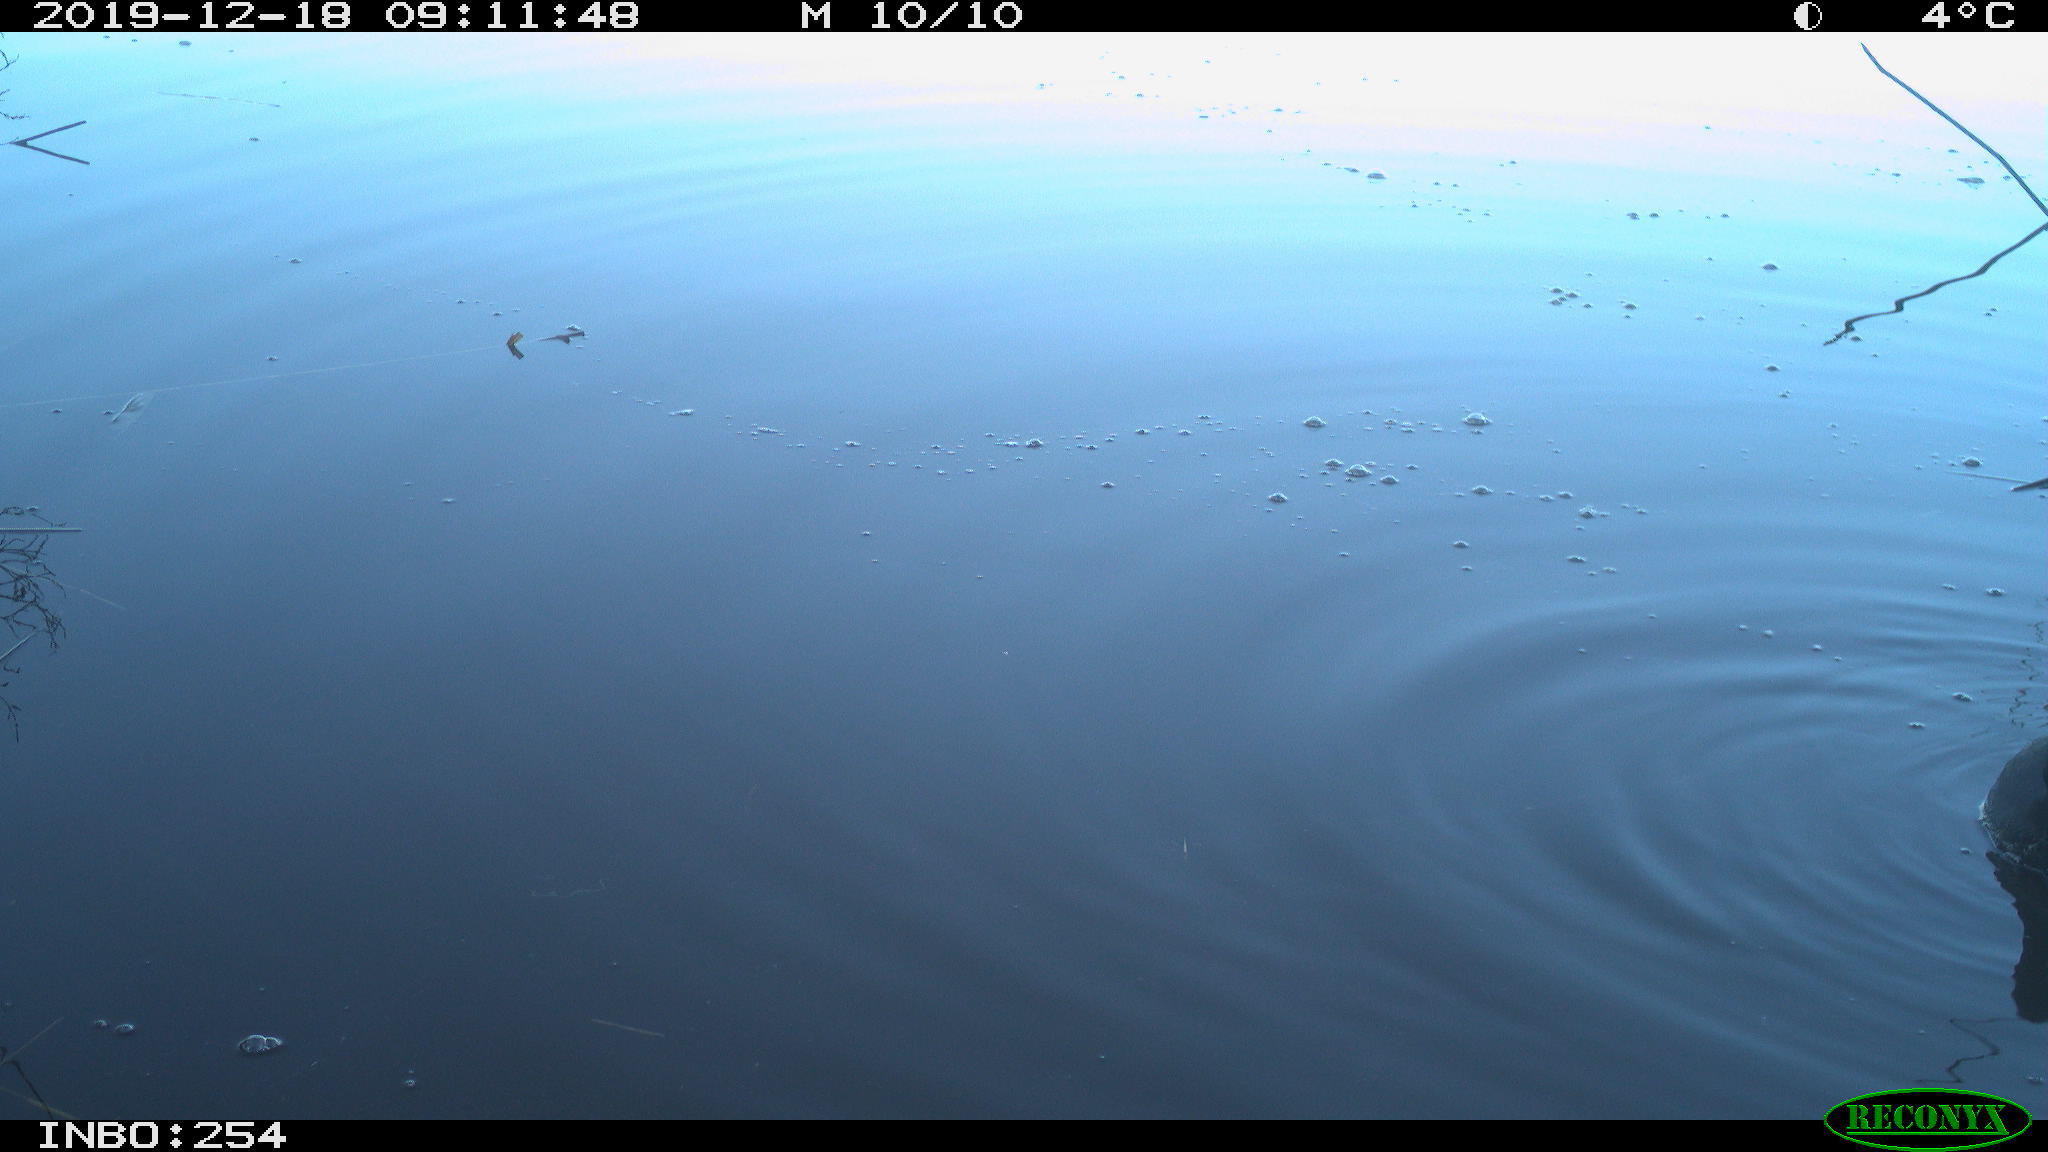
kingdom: Animalia
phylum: Chordata
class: Aves
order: Gruiformes
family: Rallidae
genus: Fulica
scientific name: Fulica atra
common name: Eurasian coot
